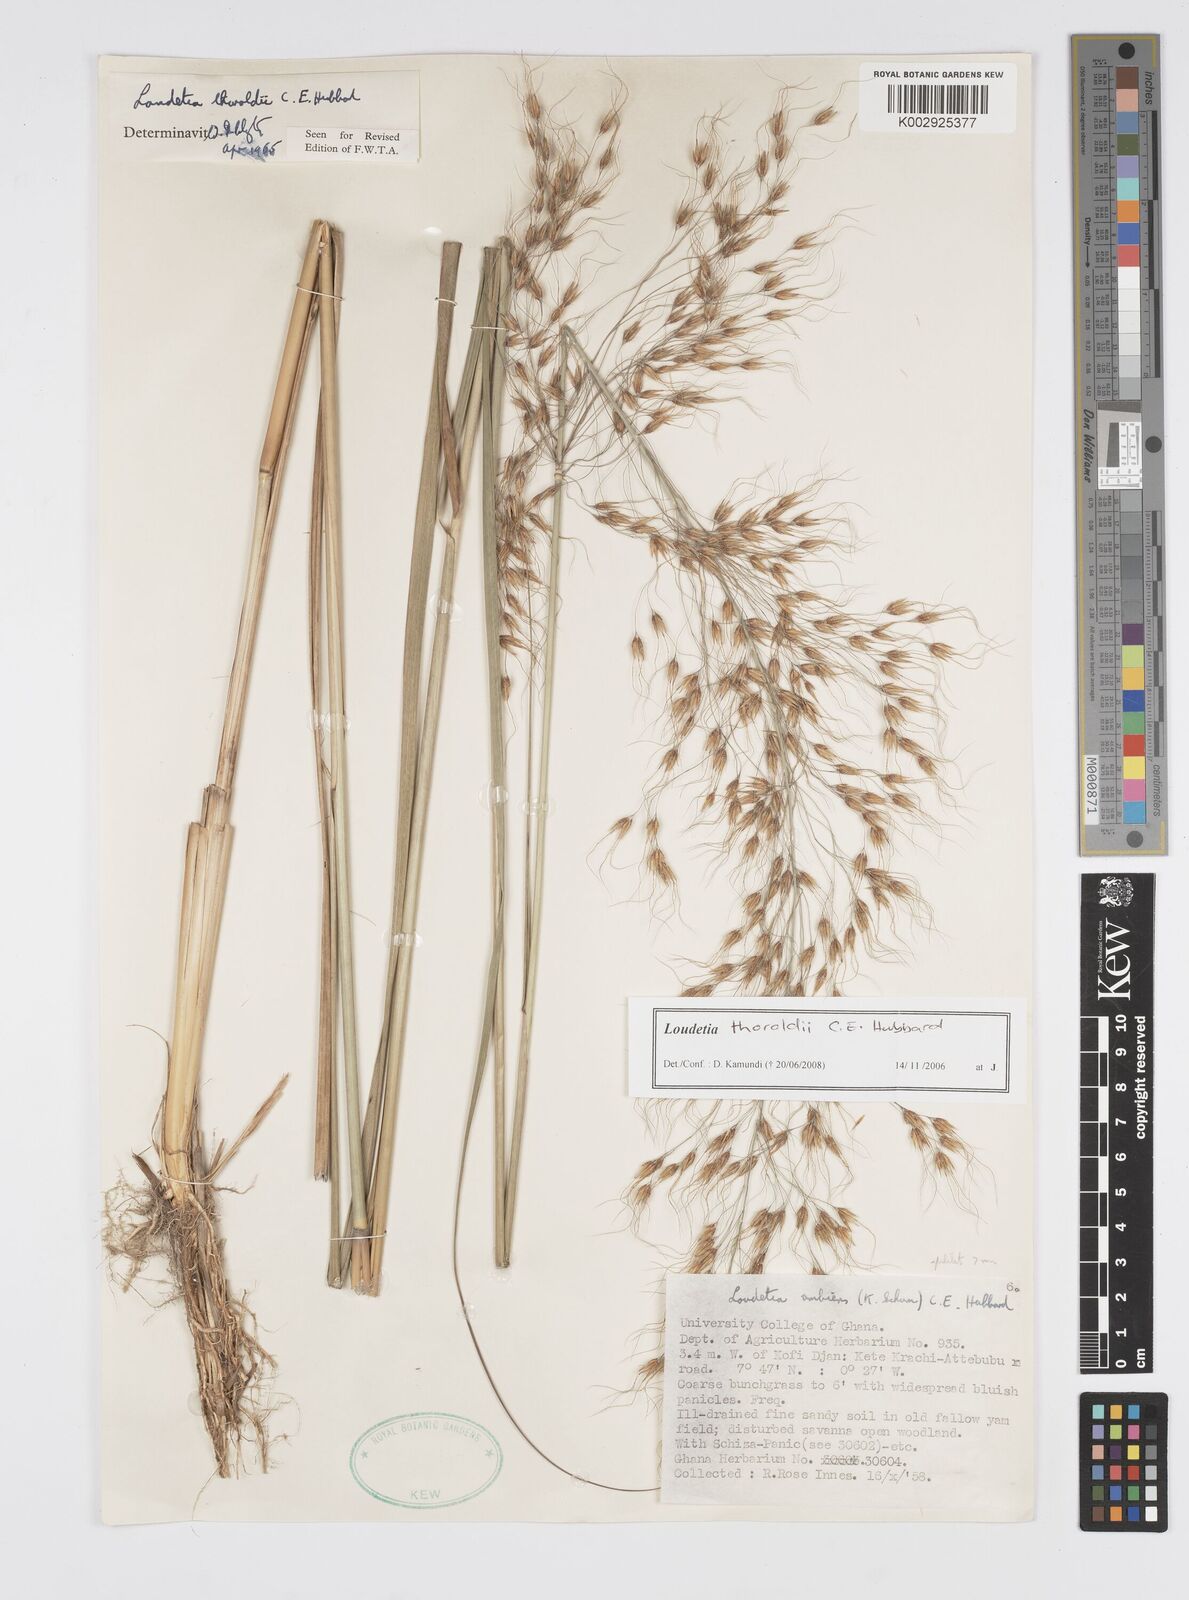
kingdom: Plantae
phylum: Tracheophyta
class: Liliopsida
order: Poales
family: Poaceae
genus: Loudetiopsis
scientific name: Loudetiopsis thoroldii
